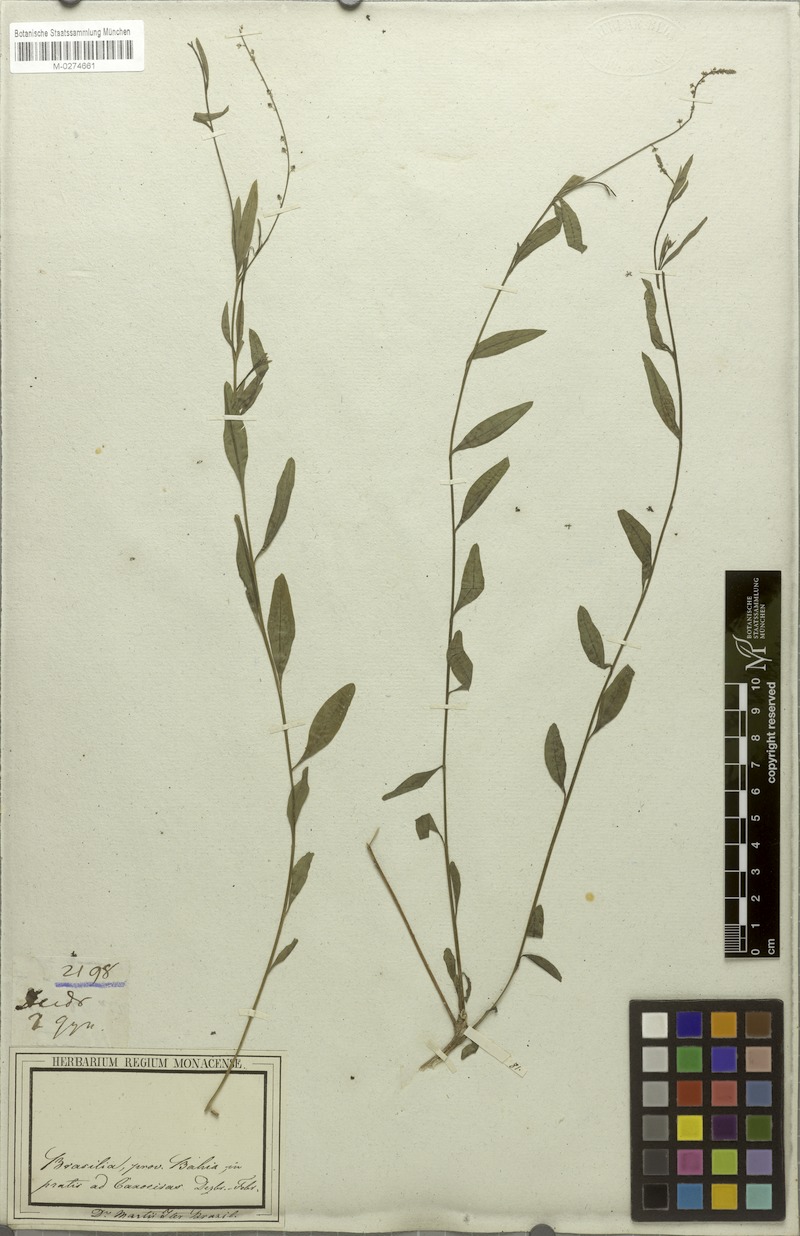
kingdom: Plantae
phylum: Tracheophyta
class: Magnoliopsida
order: Caryophyllales
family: Microteaceae
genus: Microtea
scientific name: Microtea maypurensis
